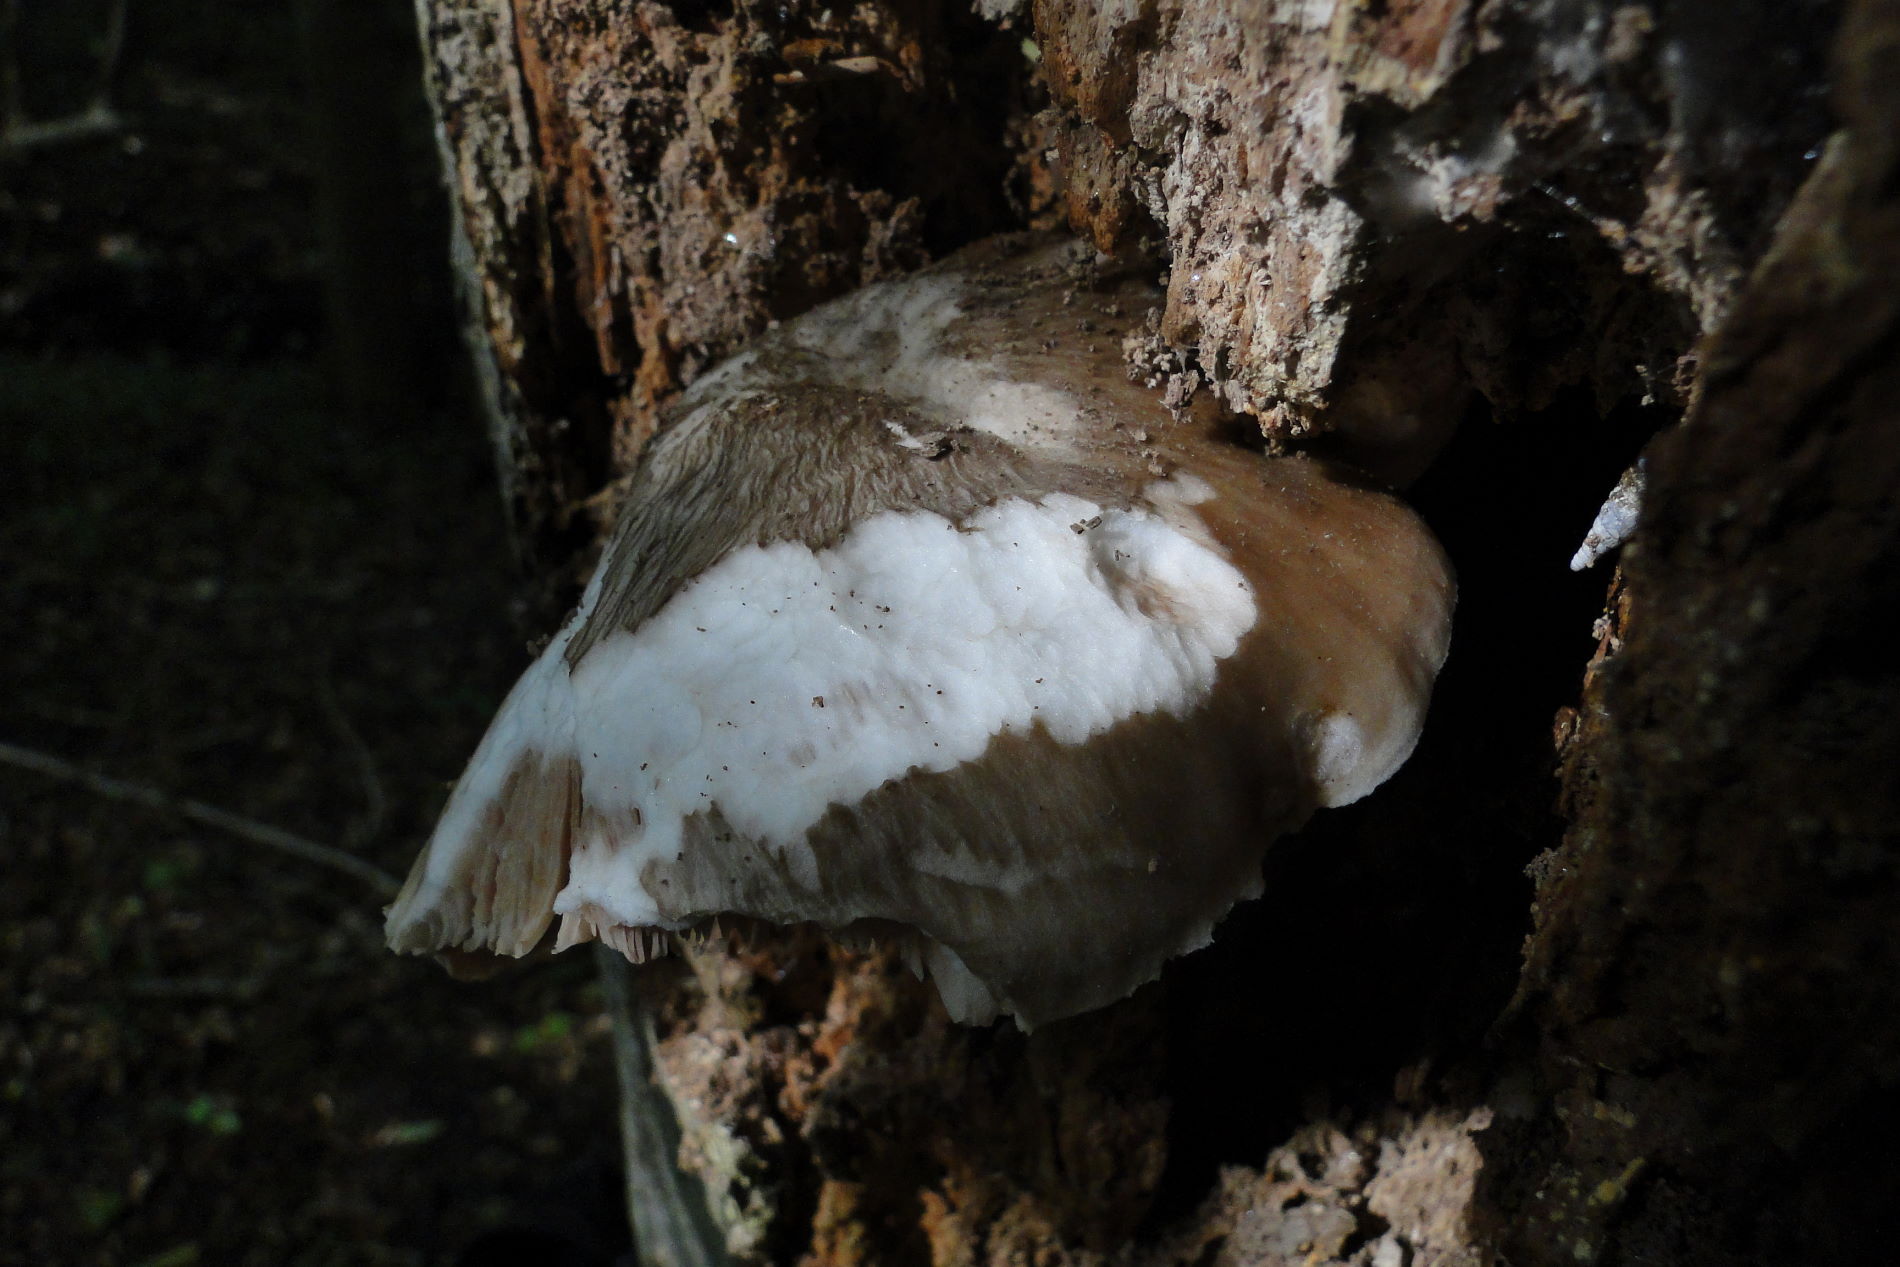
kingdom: Fungi
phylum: Basidiomycota
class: Agaricomycetes
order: Agaricales
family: Pluteaceae
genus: Pluteus
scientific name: Pluteus cervinus
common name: sodfarvet skærmhat
